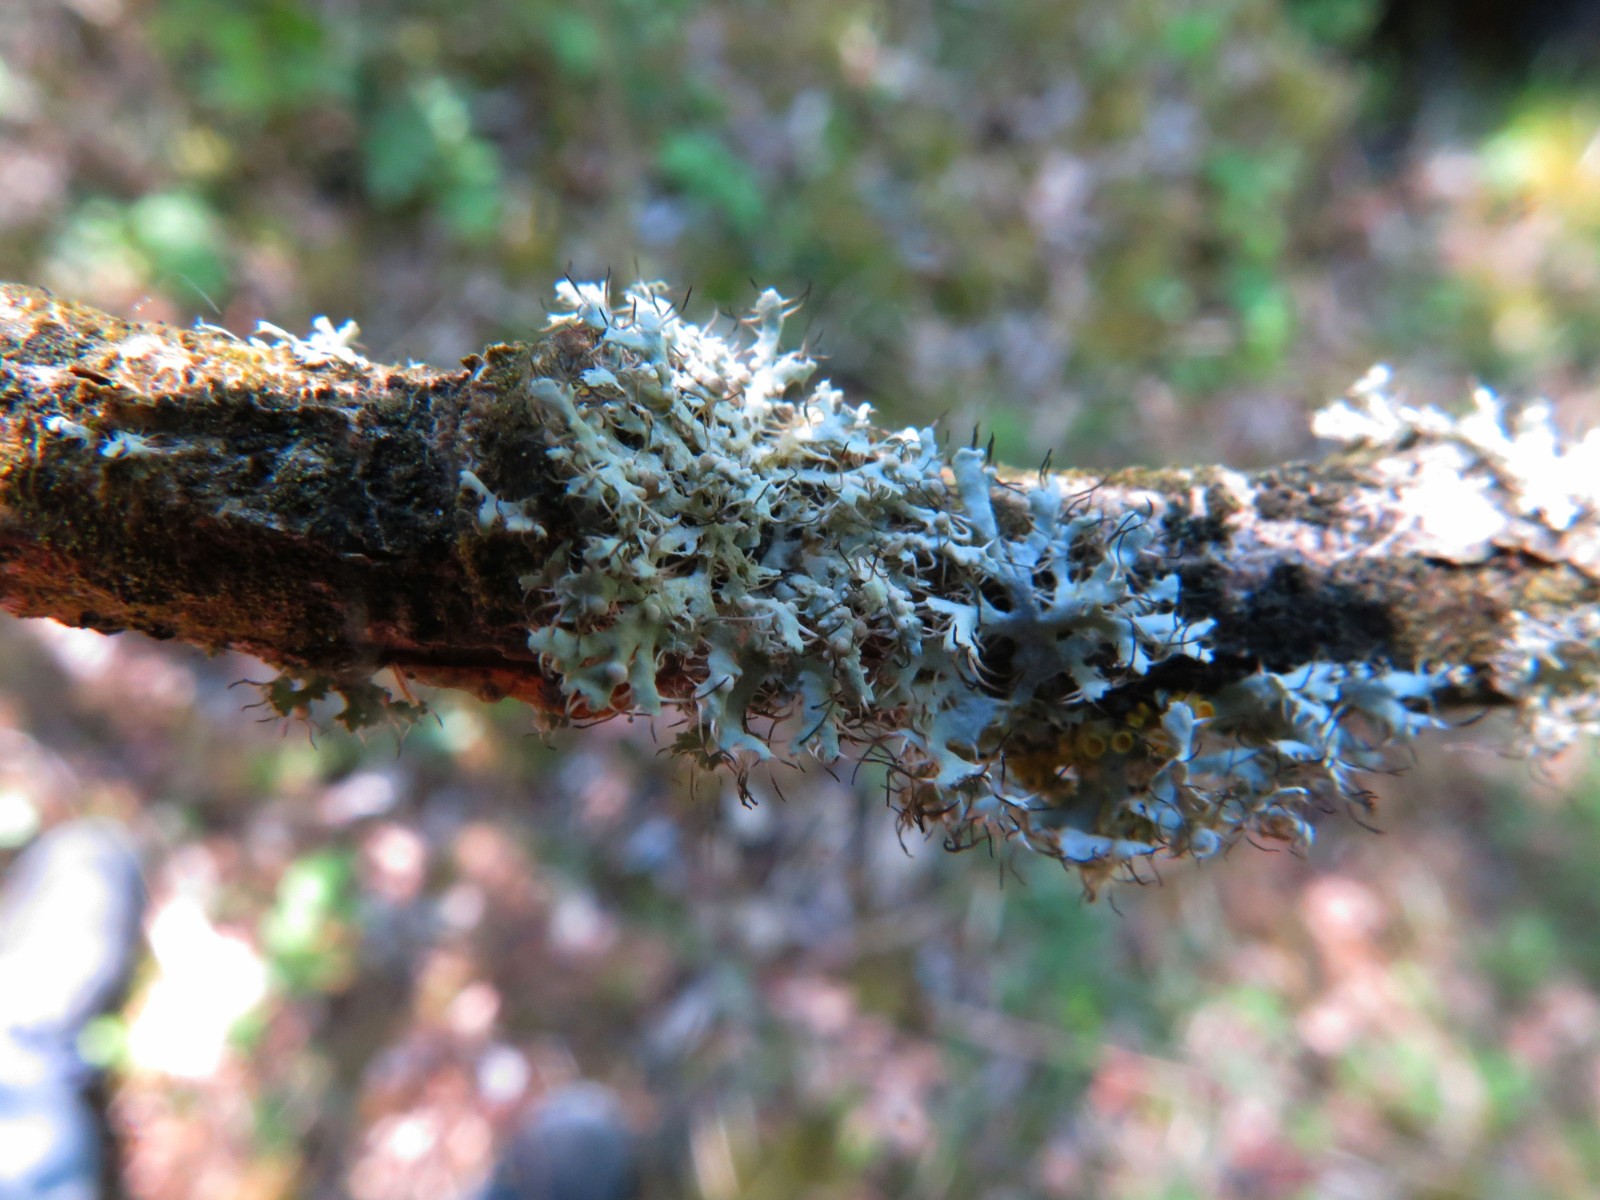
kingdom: Fungi
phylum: Ascomycota
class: Lecanoromycetes
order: Caliciales
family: Physciaceae
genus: Physcia
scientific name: Physcia
